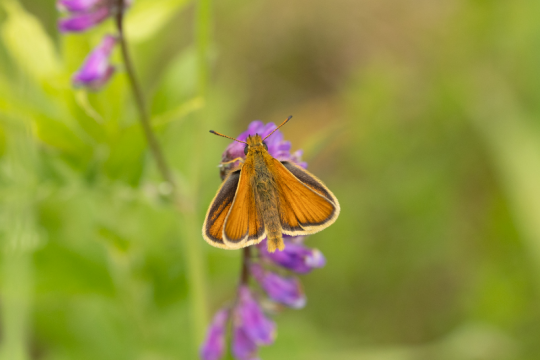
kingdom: Animalia
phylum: Arthropoda
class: Insecta
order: Lepidoptera
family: Hesperiidae
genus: Thymelicus
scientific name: Thymelicus lineola
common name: European Skipper
